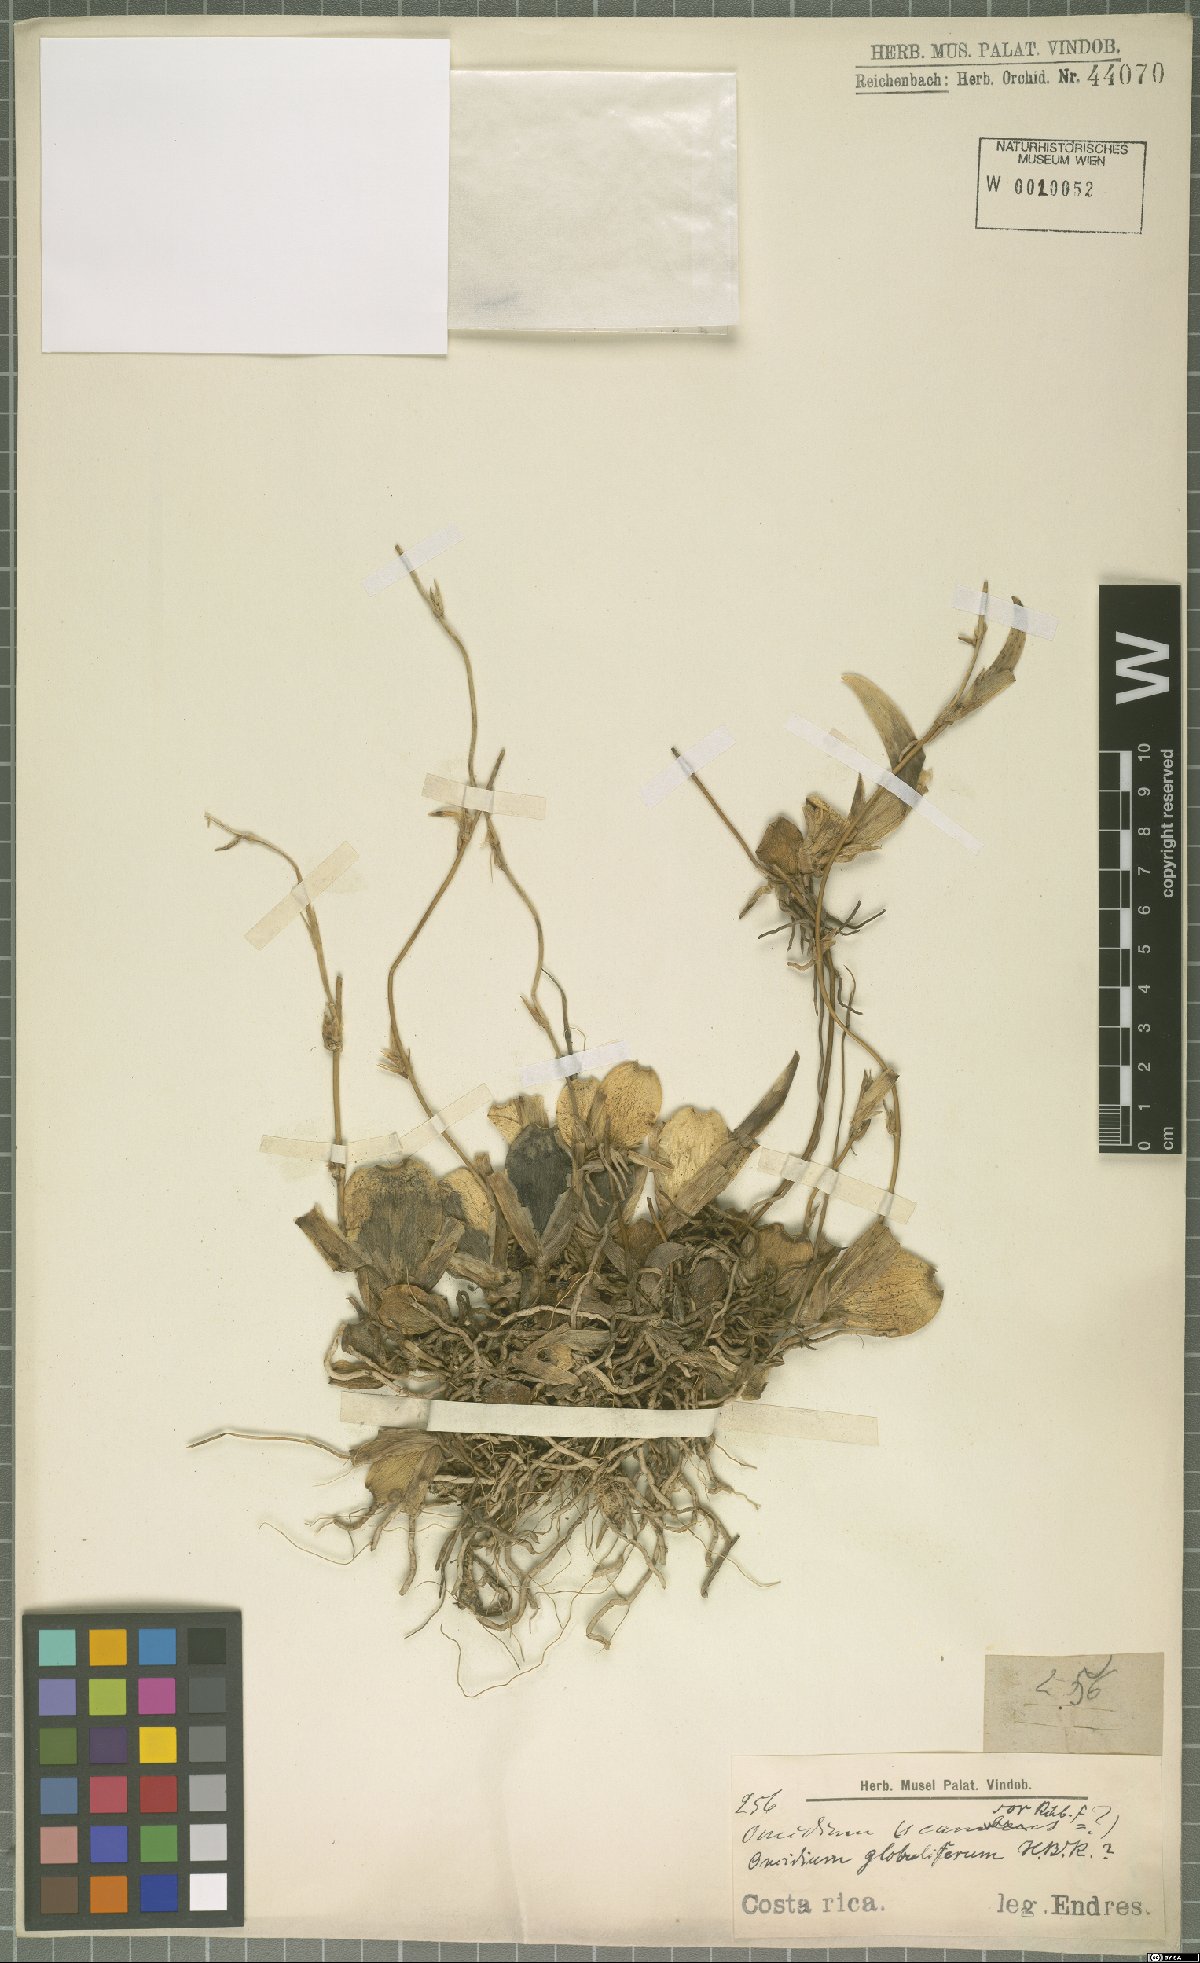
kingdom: Plantae
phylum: Tracheophyta
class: Liliopsida
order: Asparagales
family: Orchidaceae
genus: Otoglossum
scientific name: Otoglossum globuliferum
